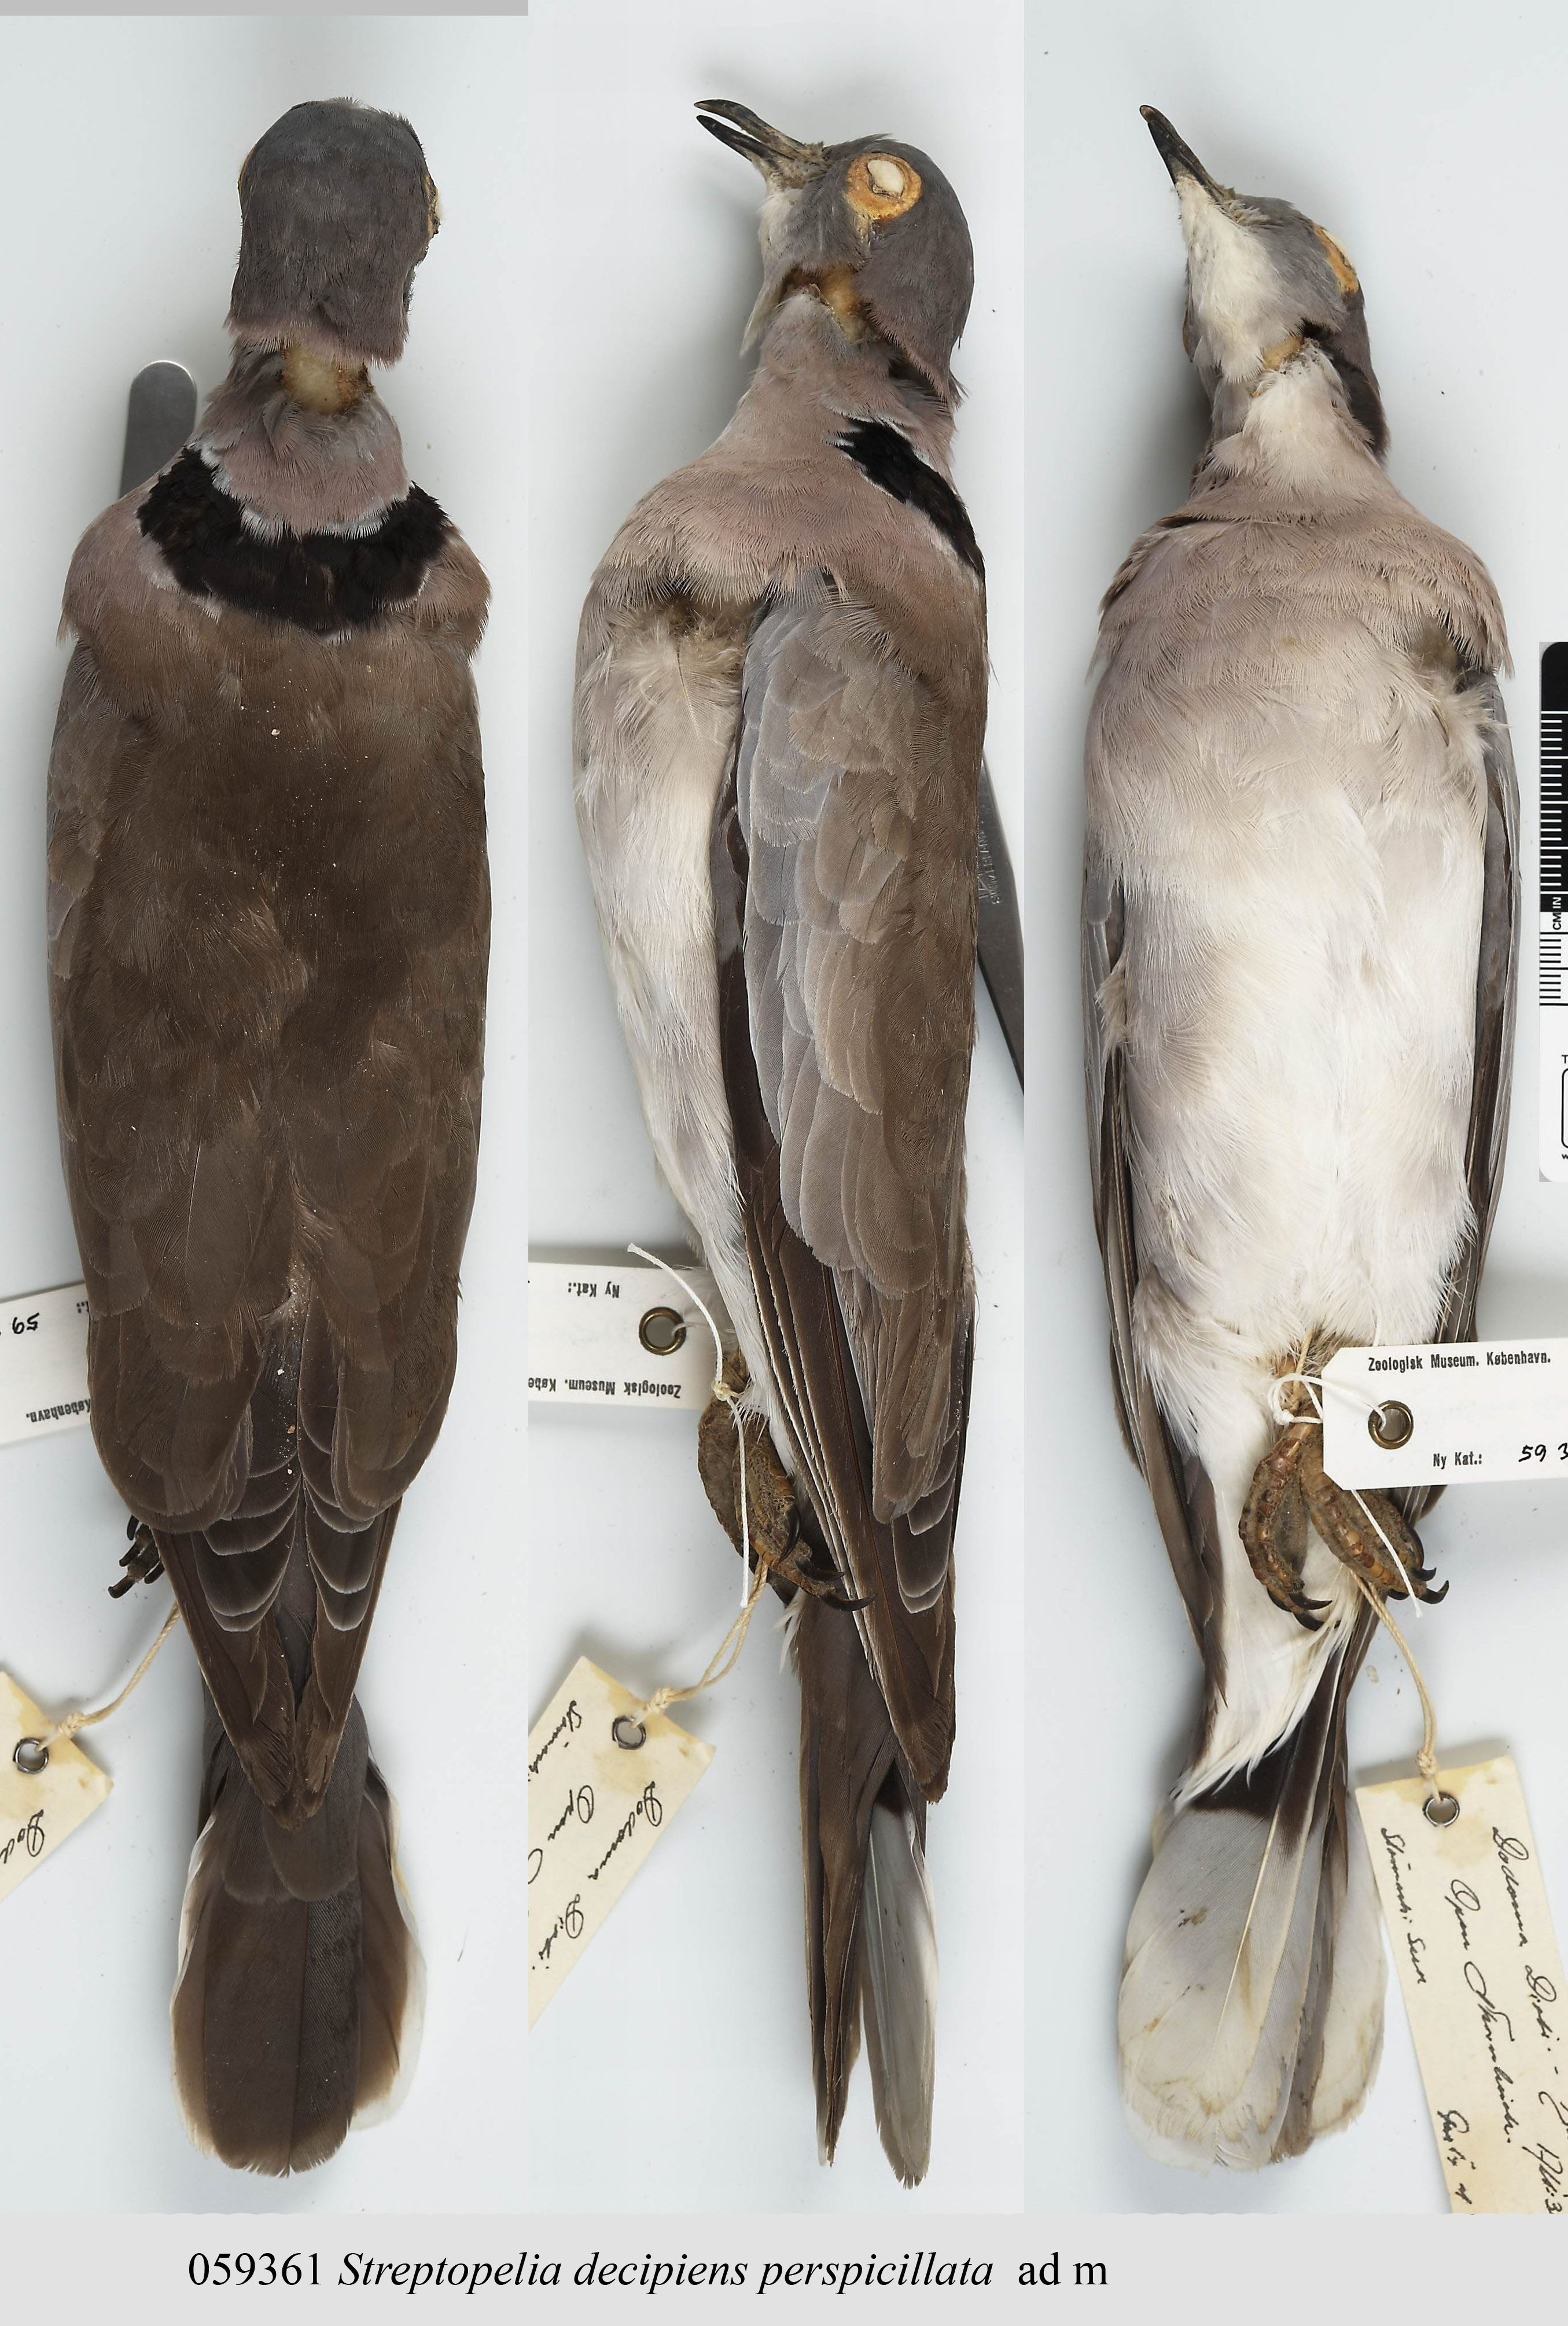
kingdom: Animalia
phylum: Chordata
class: Aves
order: Columbiformes
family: Columbidae
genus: Streptopelia
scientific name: Streptopelia decipiens
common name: Mourning collared dove
